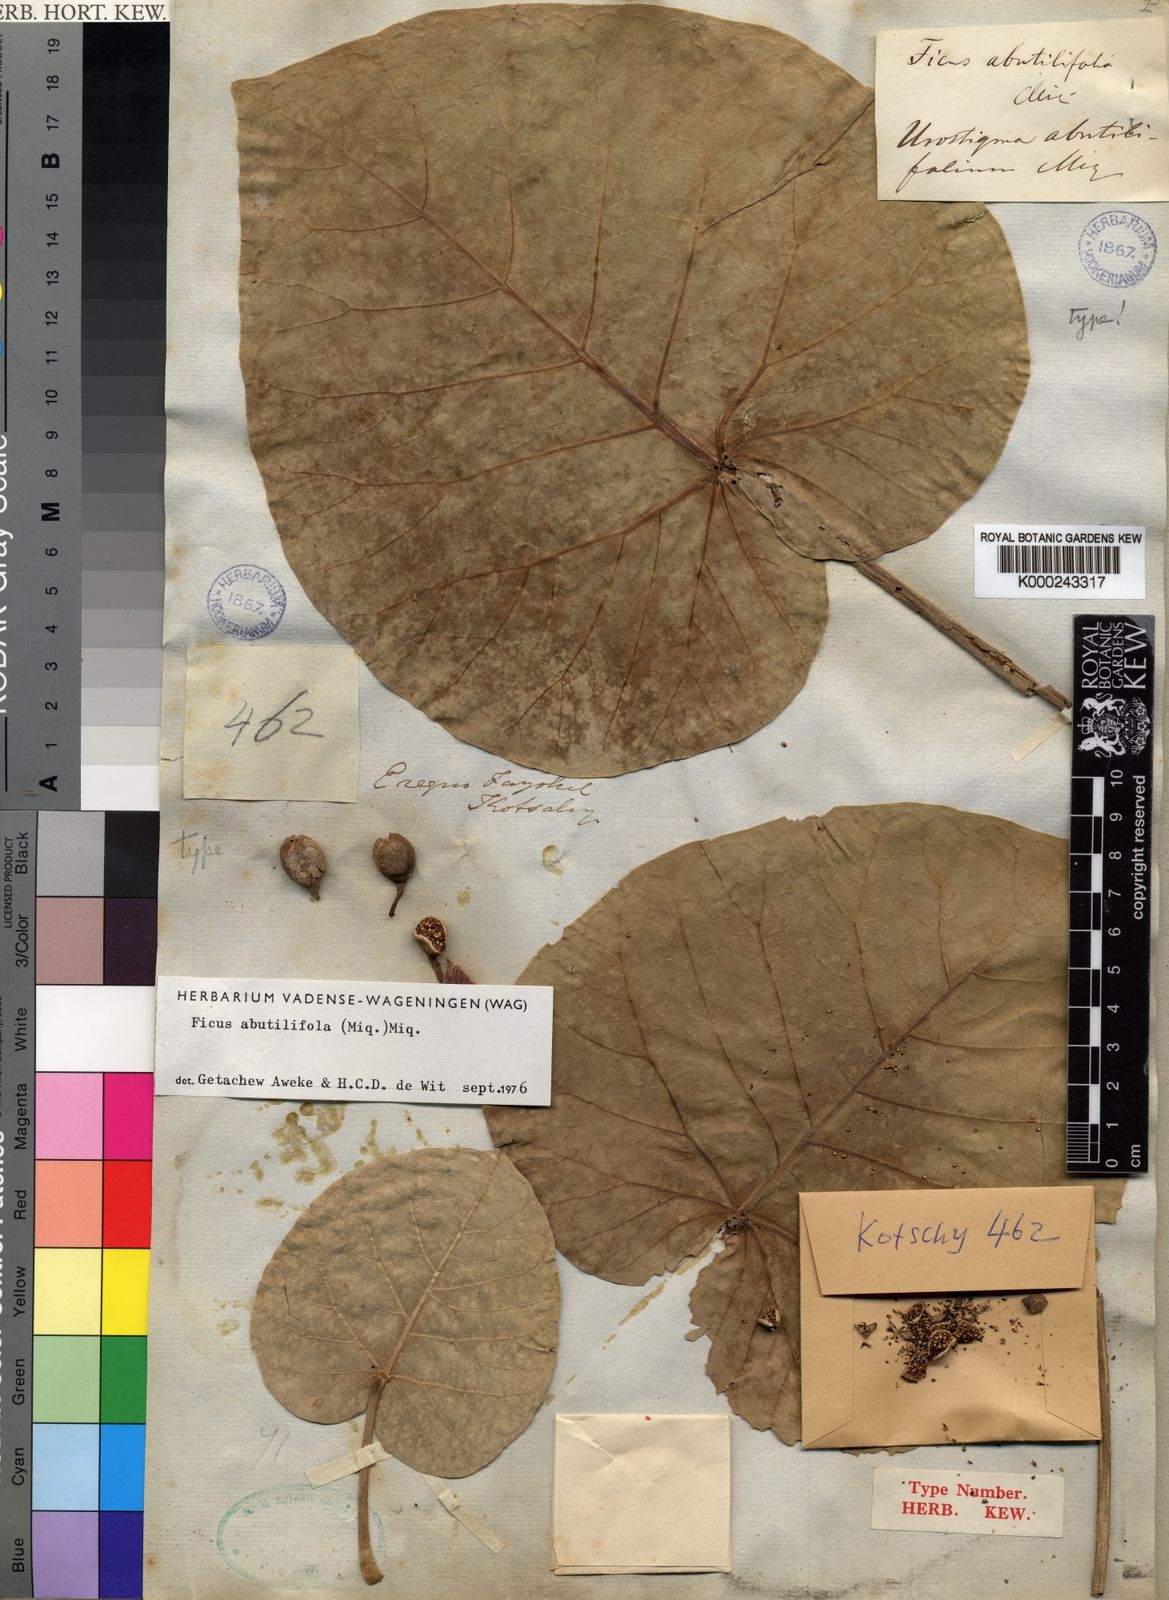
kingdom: Plantae
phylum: Tracheophyta
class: Magnoliopsida
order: Rosales
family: Moraceae
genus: Ficus
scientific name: Ficus abutilifolia
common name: Large-leaved rock fig
